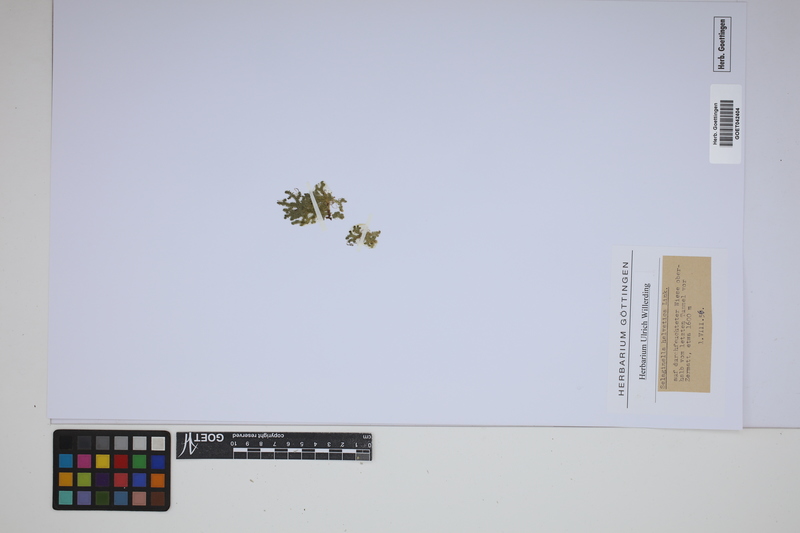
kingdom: Plantae
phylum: Tracheophyta
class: Lycopodiopsida
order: Selaginellales
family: Selaginellaceae
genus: Selaginella
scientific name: Selaginella helvetica
